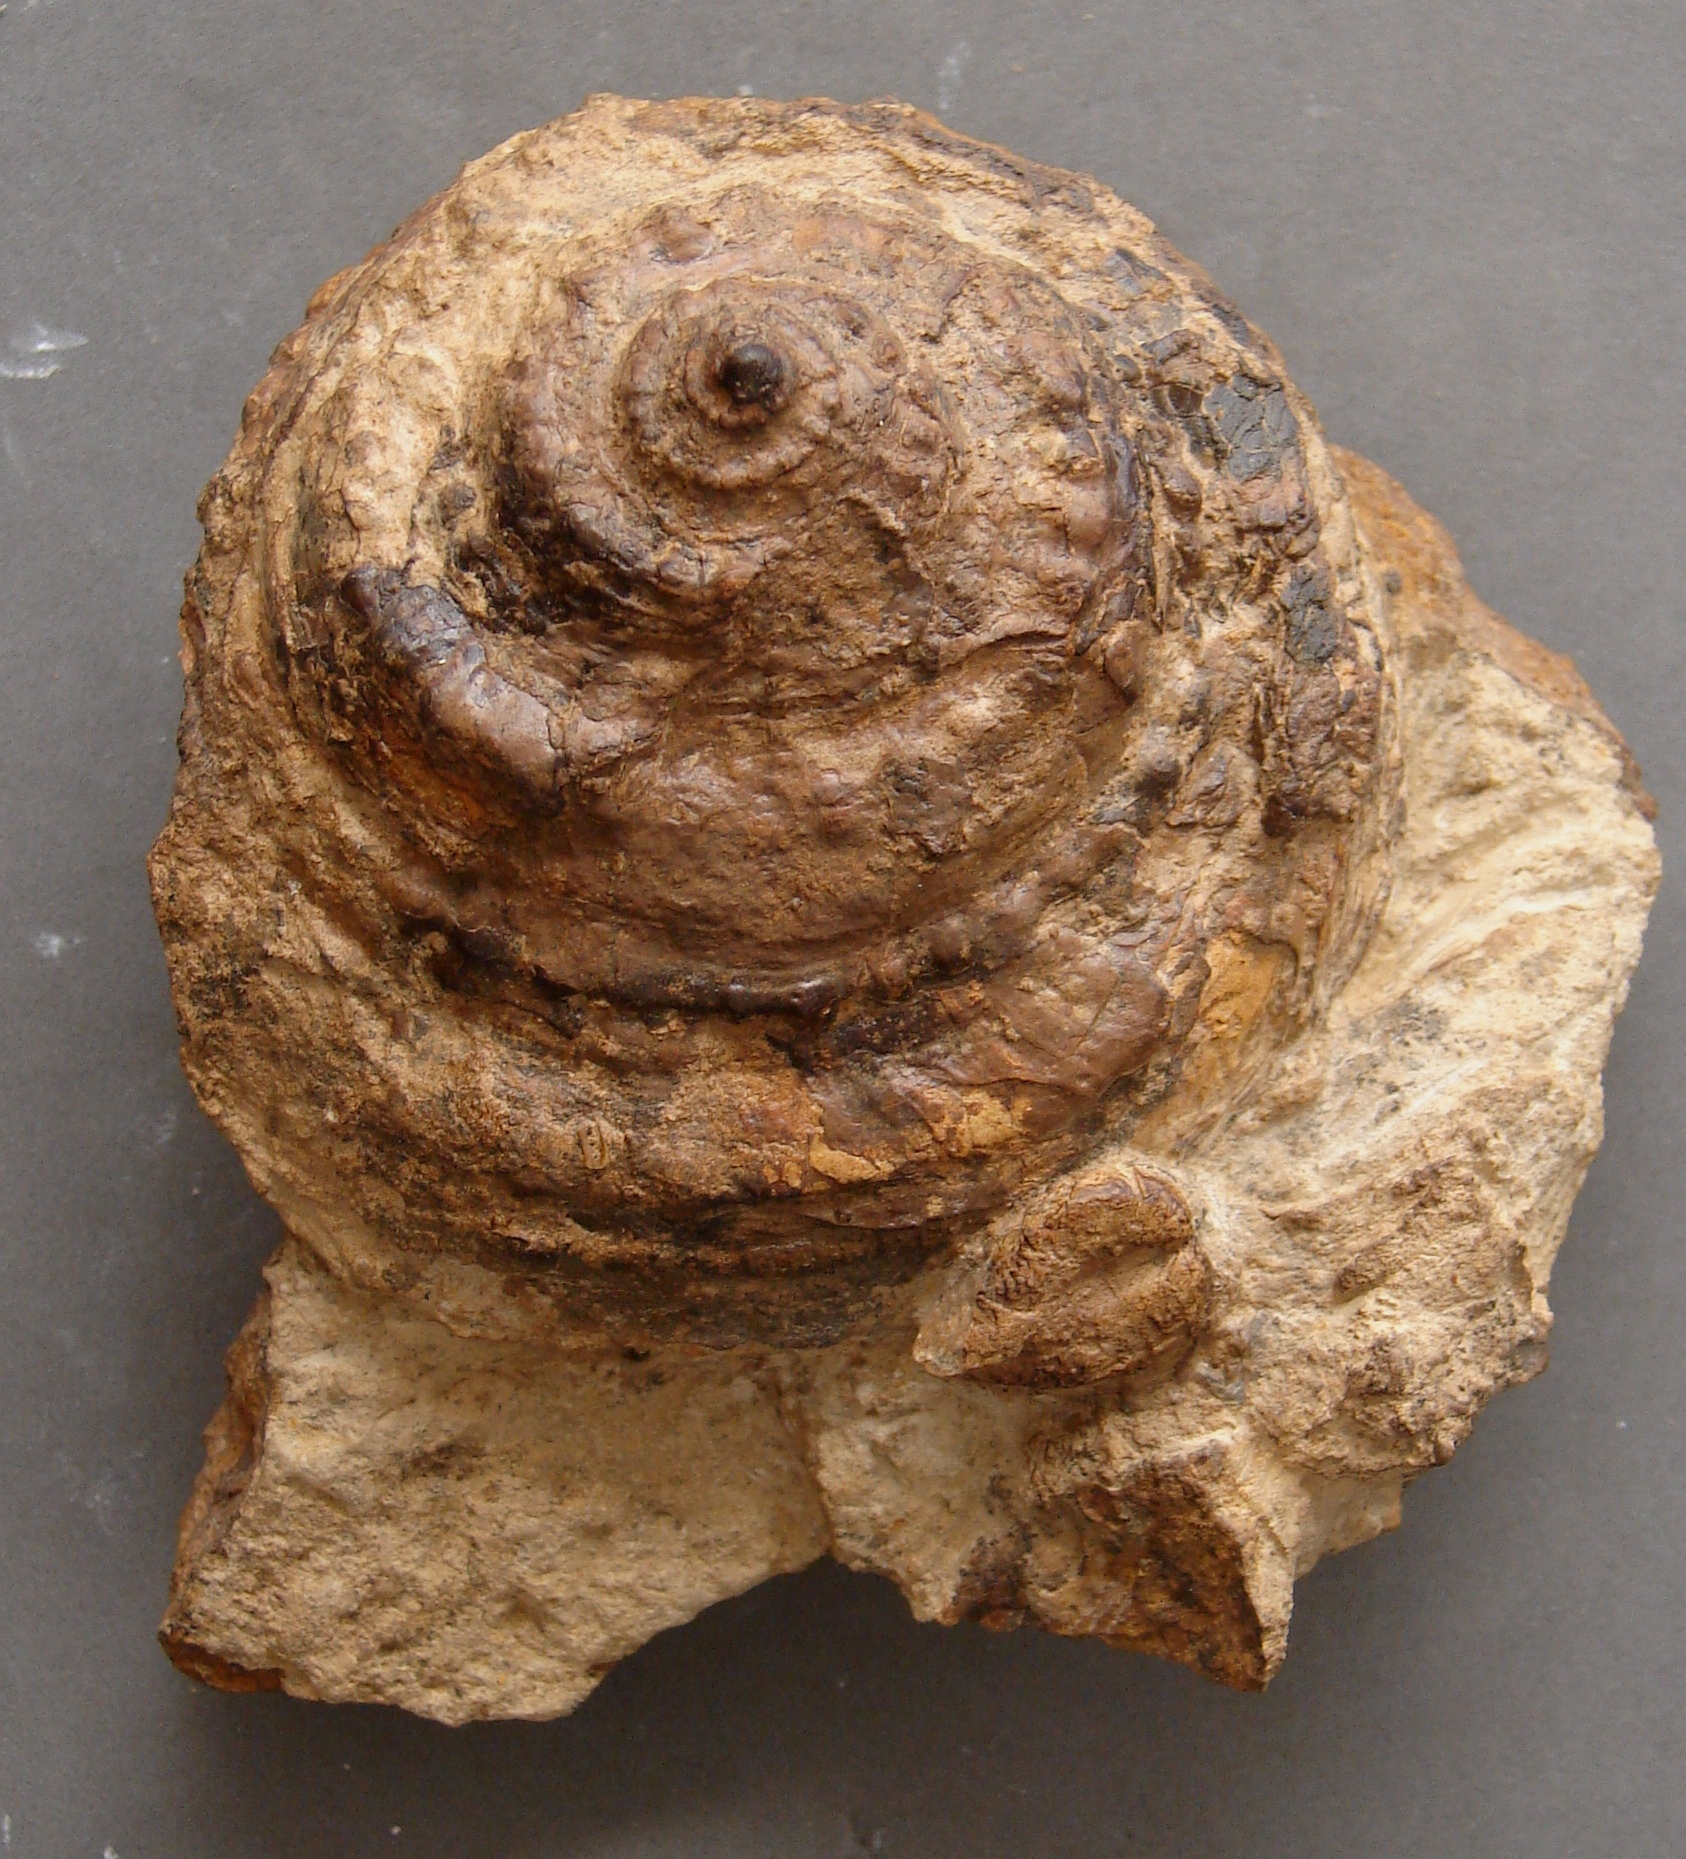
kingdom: Animalia
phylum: Mollusca
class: Gastropoda
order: Pleurotomariida
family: Pleurotomariidae
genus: Pleurotomaria
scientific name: Pleurotomaria rotundata
